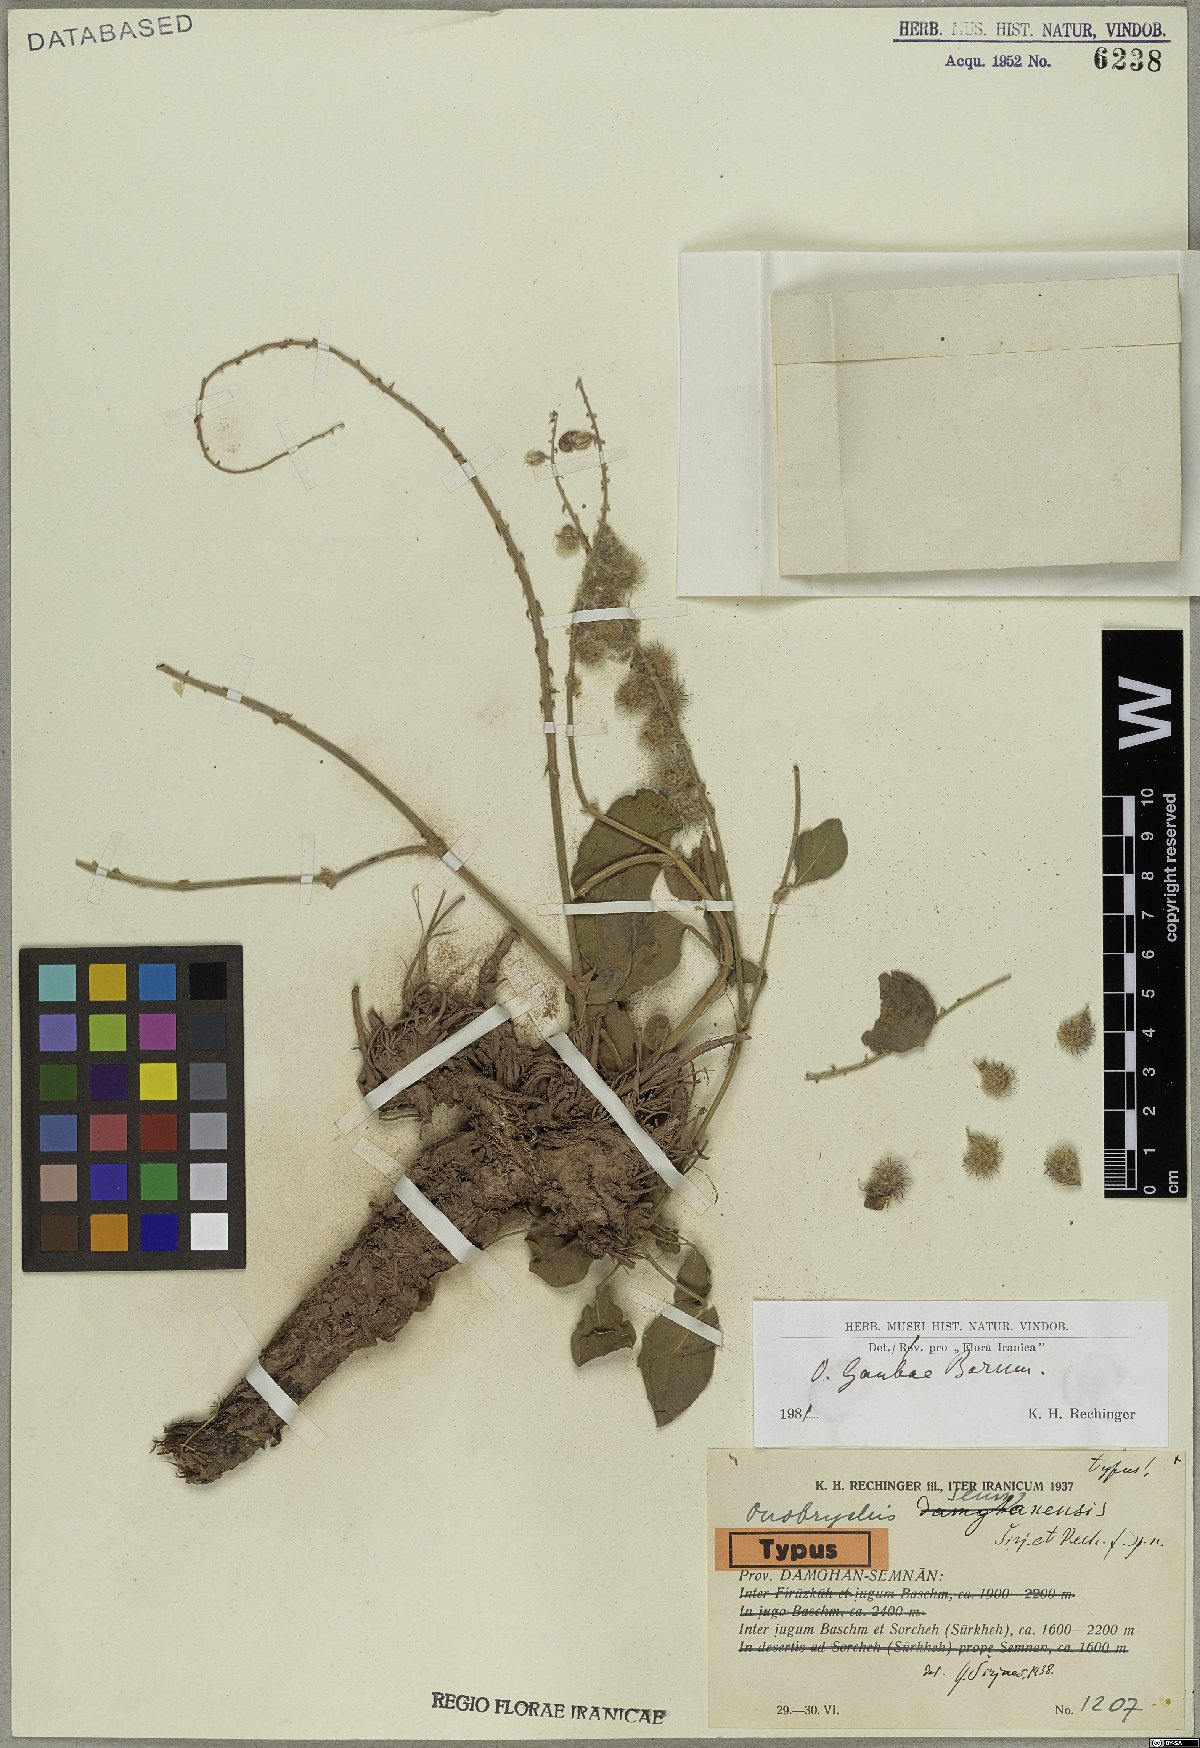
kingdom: Plantae
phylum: Tracheophyta
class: Magnoliopsida
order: Fabales
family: Fabaceae
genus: Onobrychis
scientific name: Onobrychis gaubae
